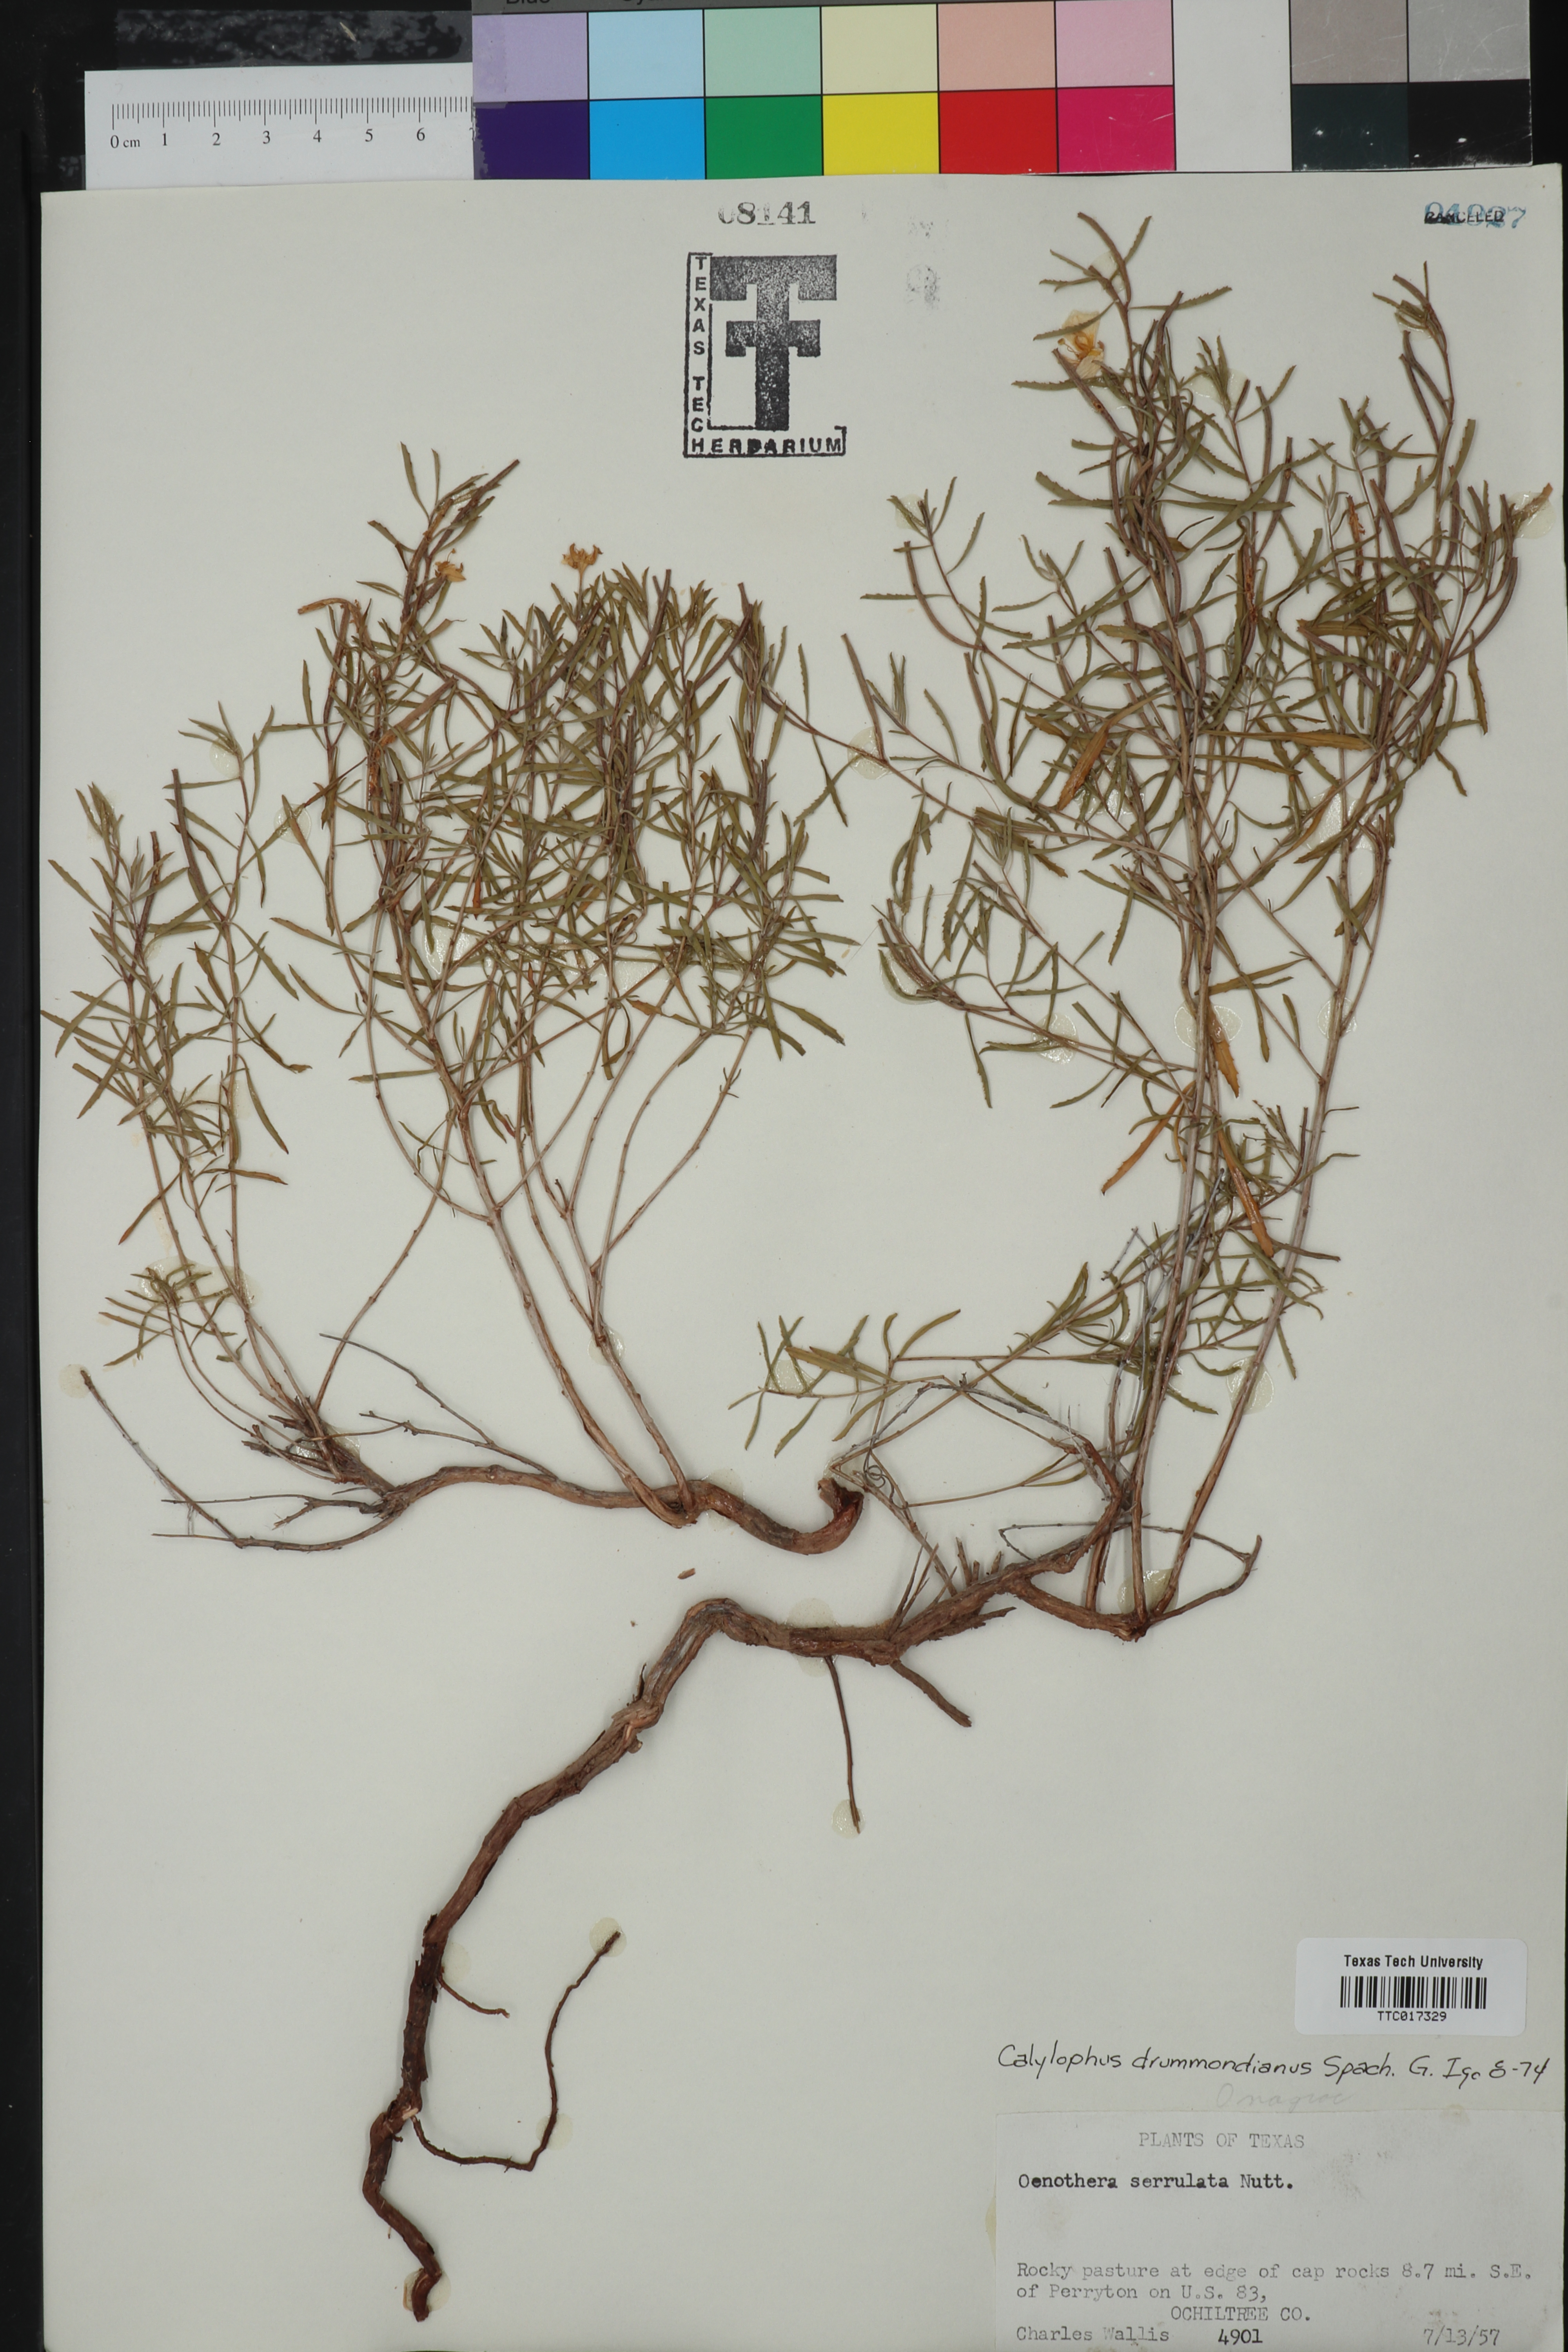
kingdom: Plantae
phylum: Tracheophyta
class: Magnoliopsida
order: Myrtales
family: Onagraceae
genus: Oenothera
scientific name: Oenothera serrulata
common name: Half-shrub calylophus
